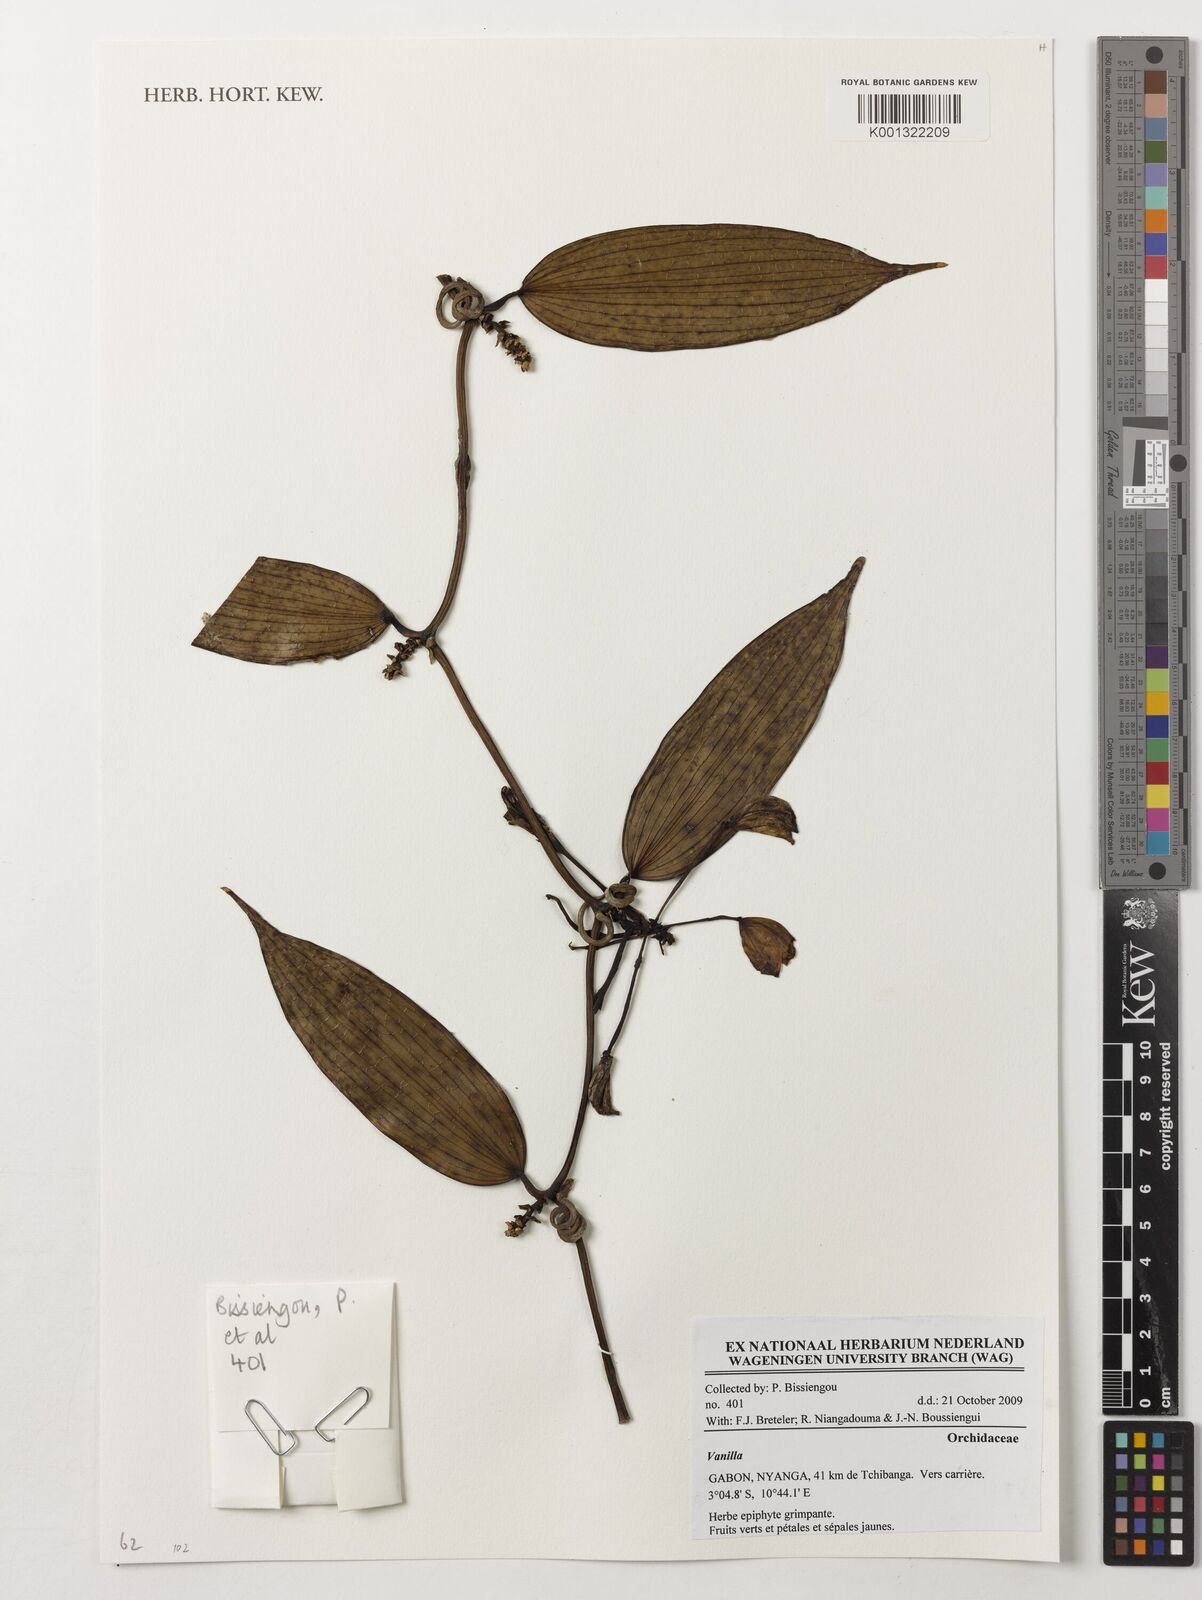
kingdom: Plantae
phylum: Tracheophyta
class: Liliopsida
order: Asparagales
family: Orchidaceae
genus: Vanilla
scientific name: Vanilla
